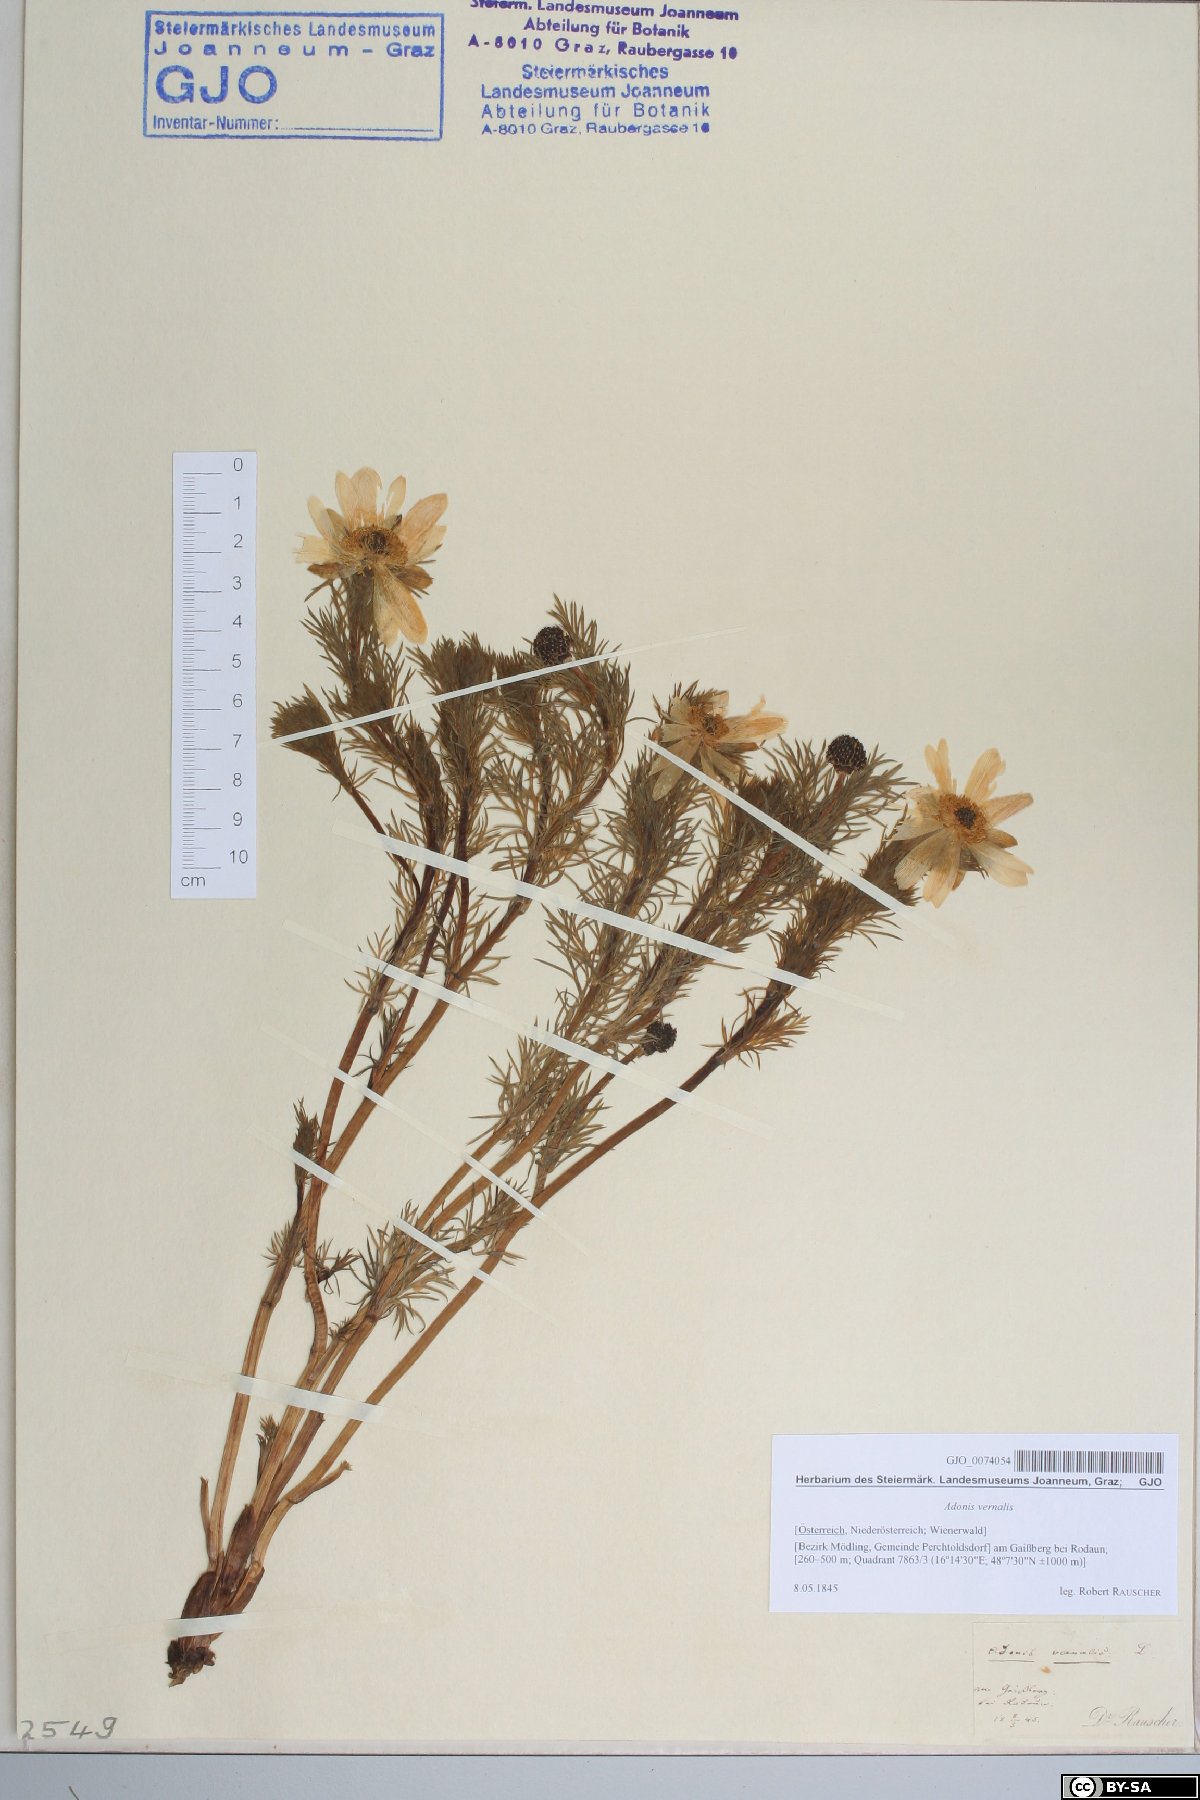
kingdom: Plantae
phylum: Tracheophyta
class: Magnoliopsida
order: Ranunculales
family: Ranunculaceae
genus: Adonis
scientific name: Adonis vernalis
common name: Yellow pheasants-eye
